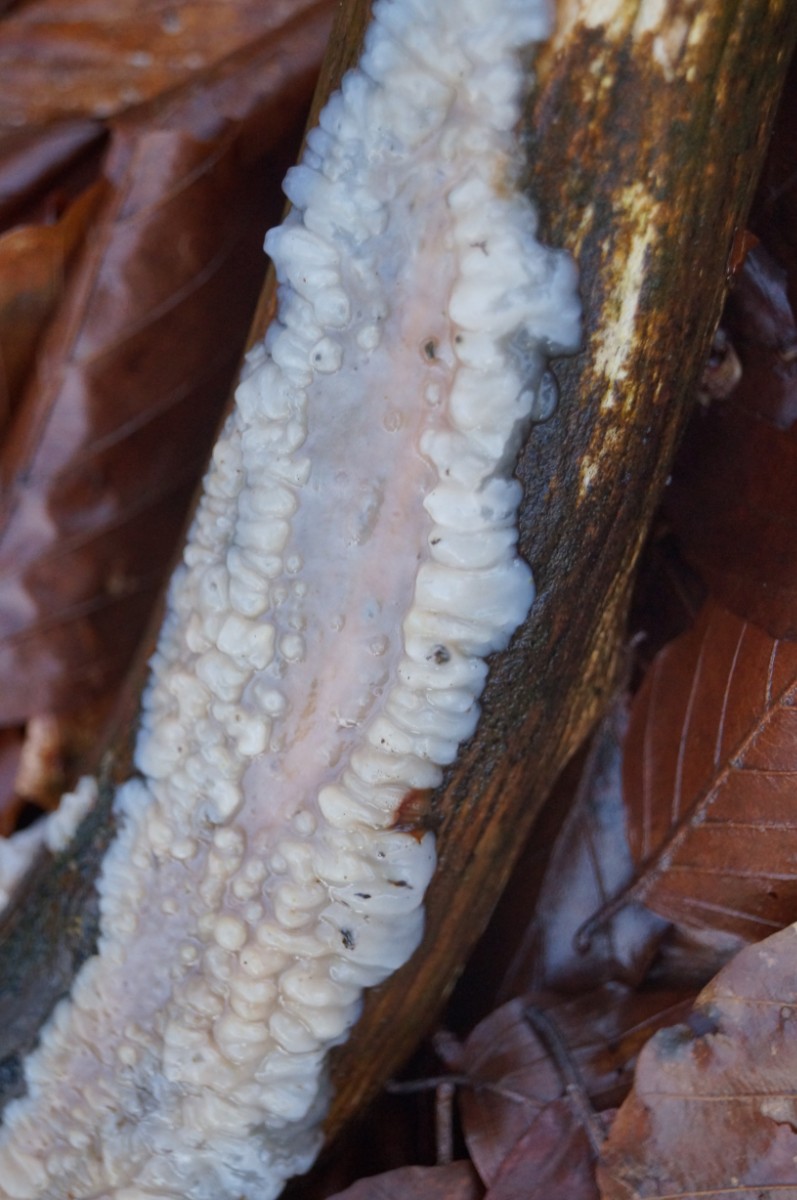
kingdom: Fungi
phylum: Basidiomycota
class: Agaricomycetes
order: Auriculariales
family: Auriculariaceae
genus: Exidia
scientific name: Exidia thuretiana
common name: hvidlig bævretop
